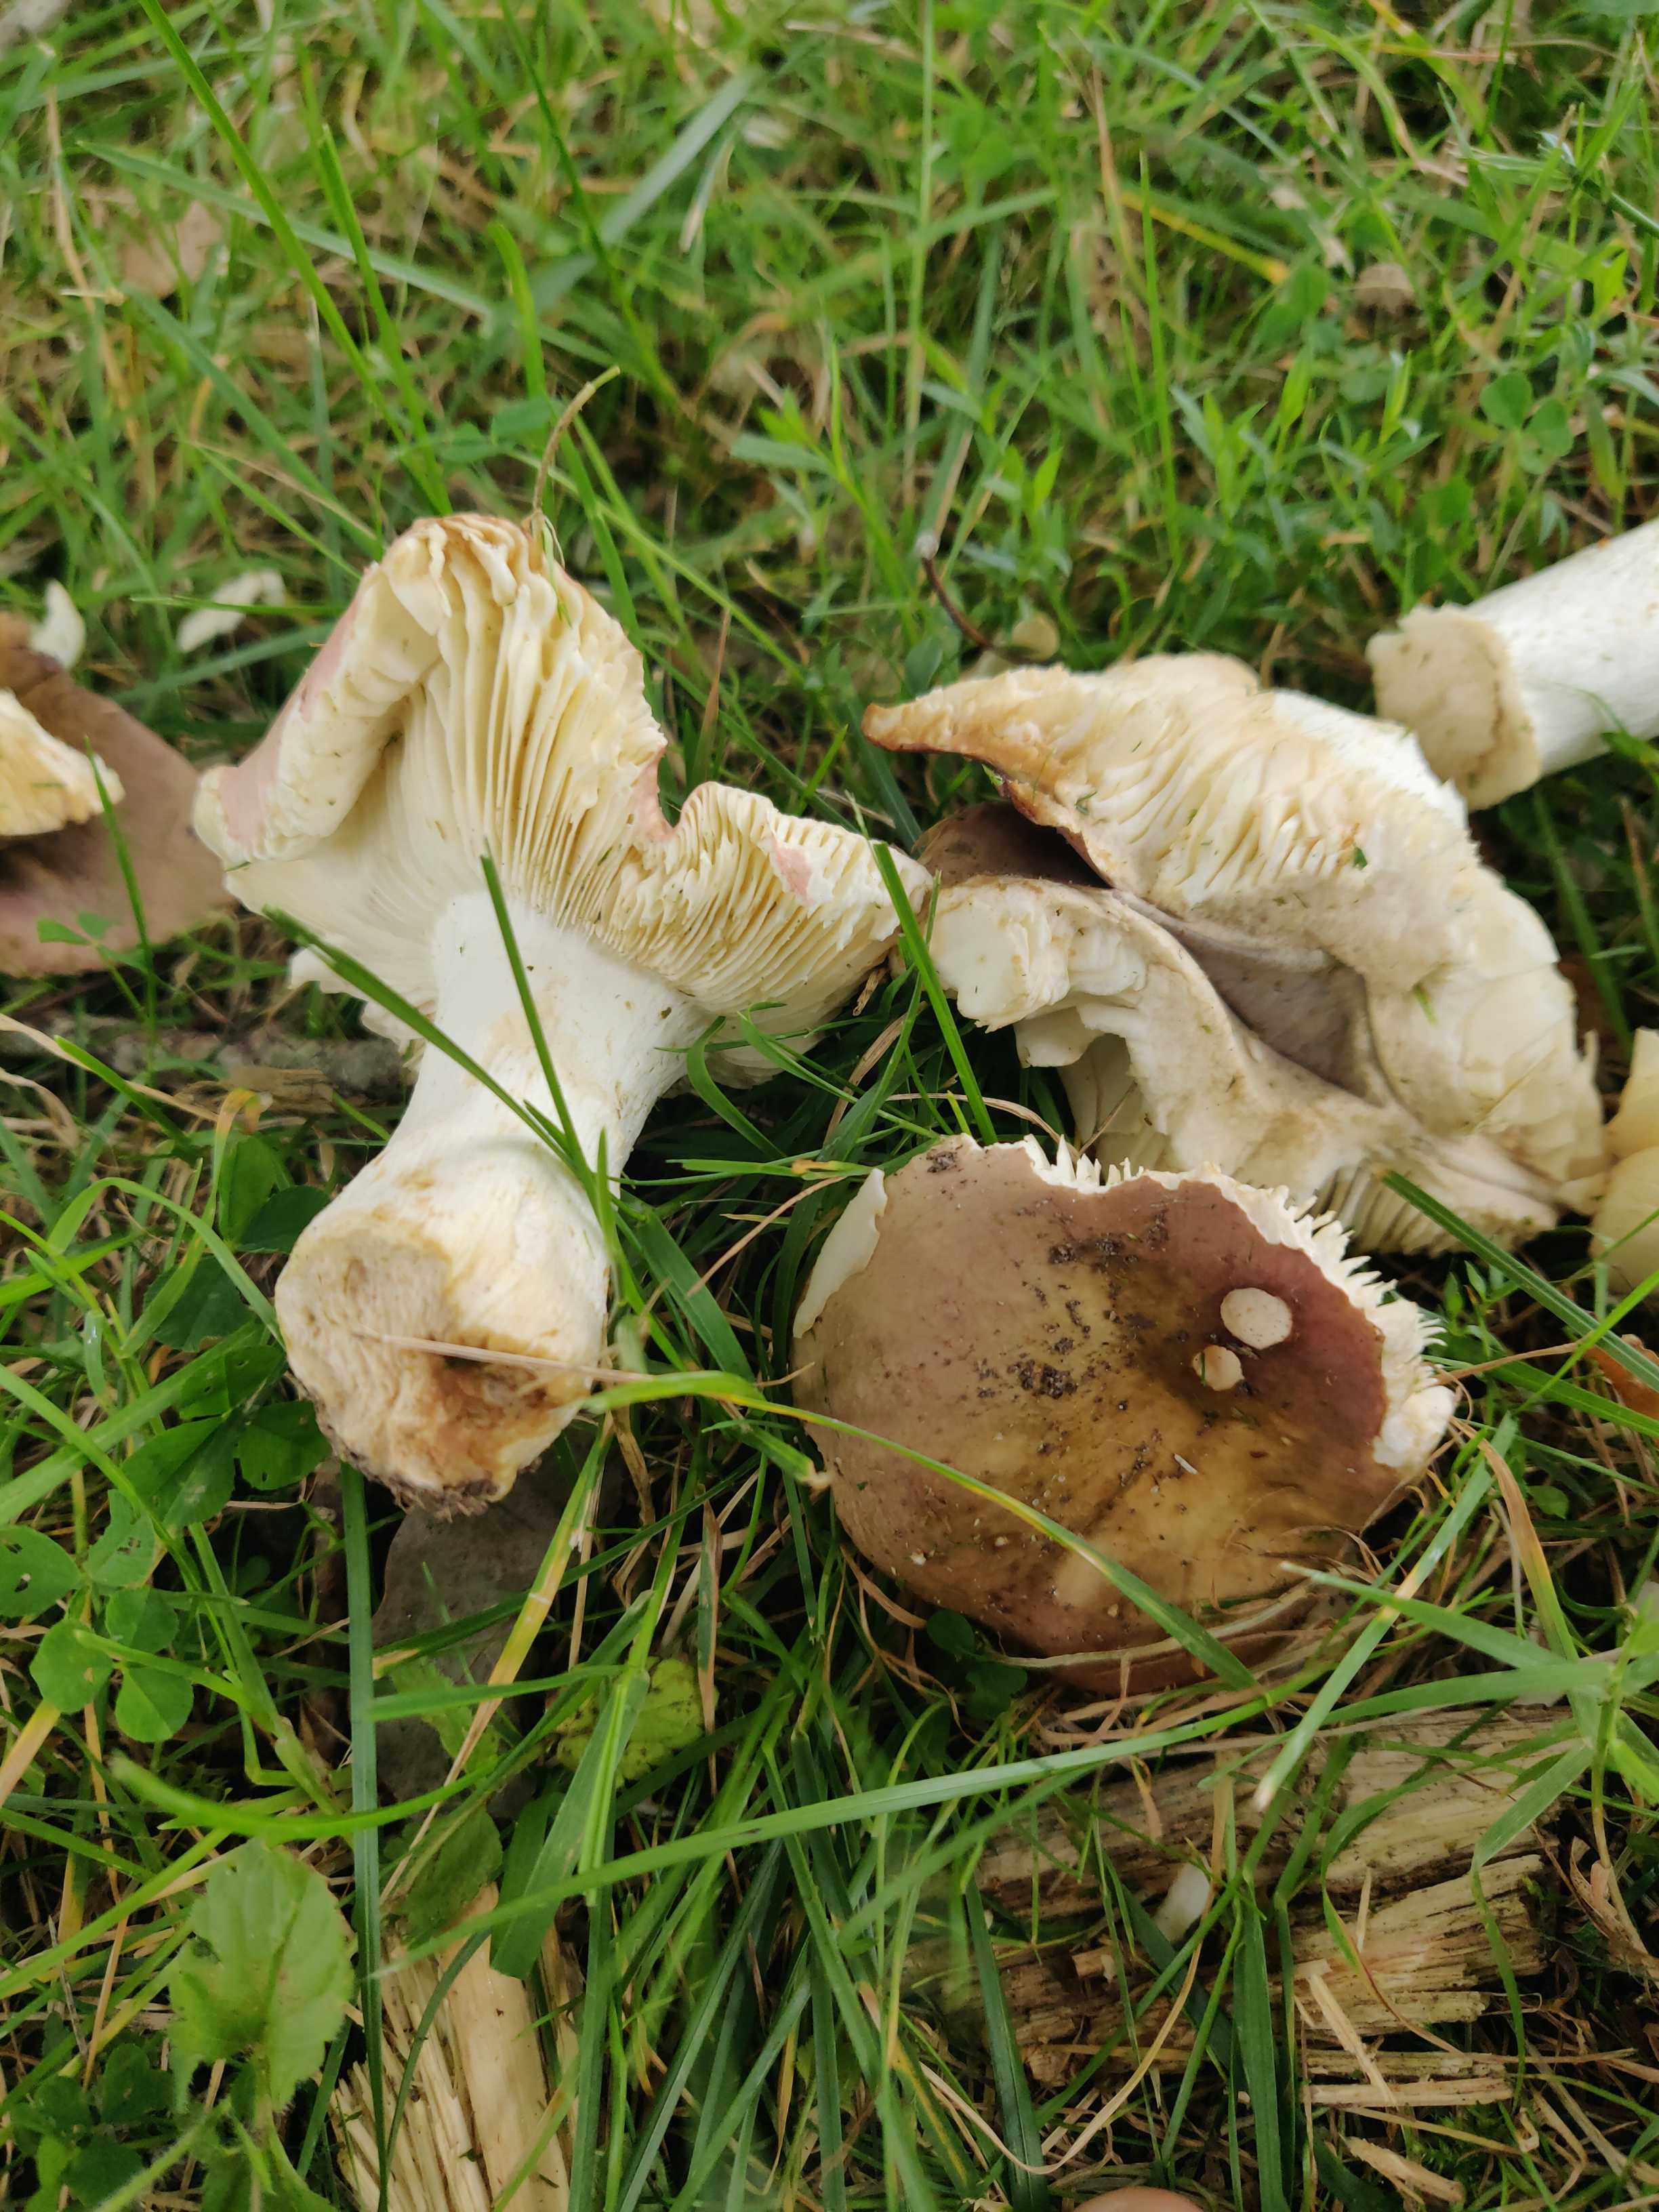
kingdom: Fungi
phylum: Basidiomycota
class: Agaricomycetes
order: Russulales
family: Russulaceae
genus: Russula
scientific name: Russula
